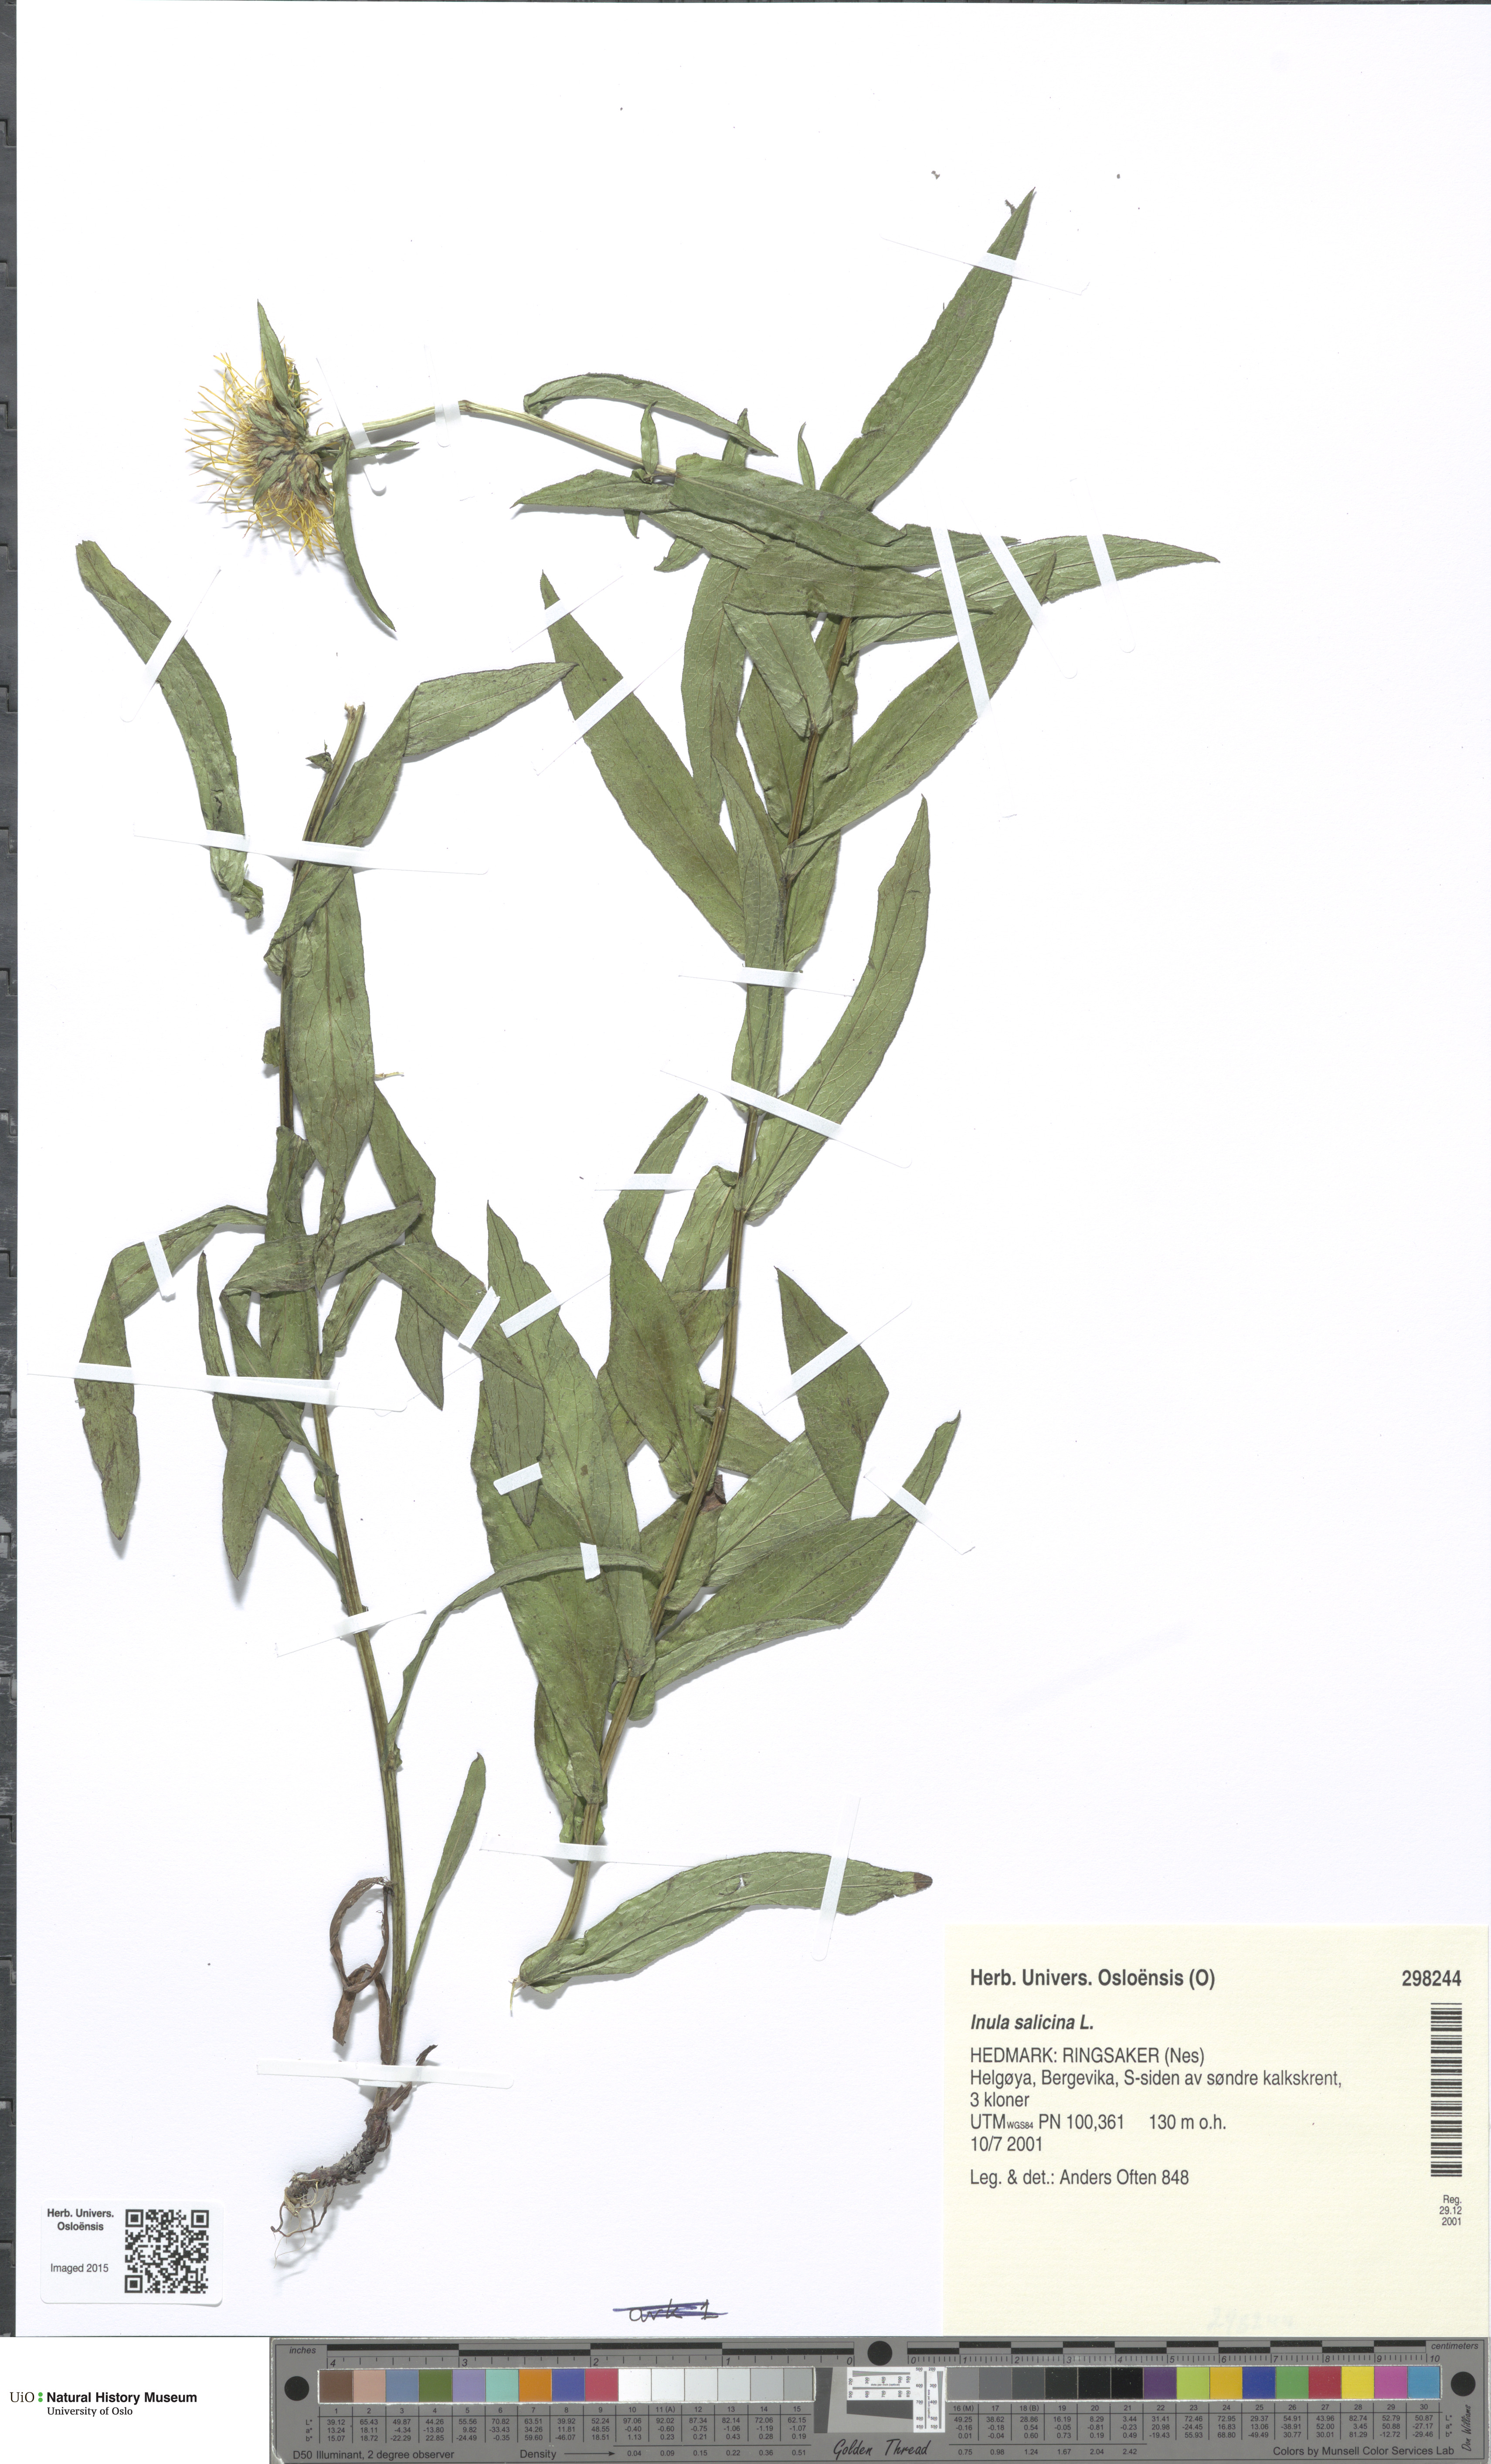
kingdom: Plantae
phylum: Tracheophyta
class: Magnoliopsida
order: Asterales
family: Asteraceae
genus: Pentanema
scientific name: Pentanema salicinum
